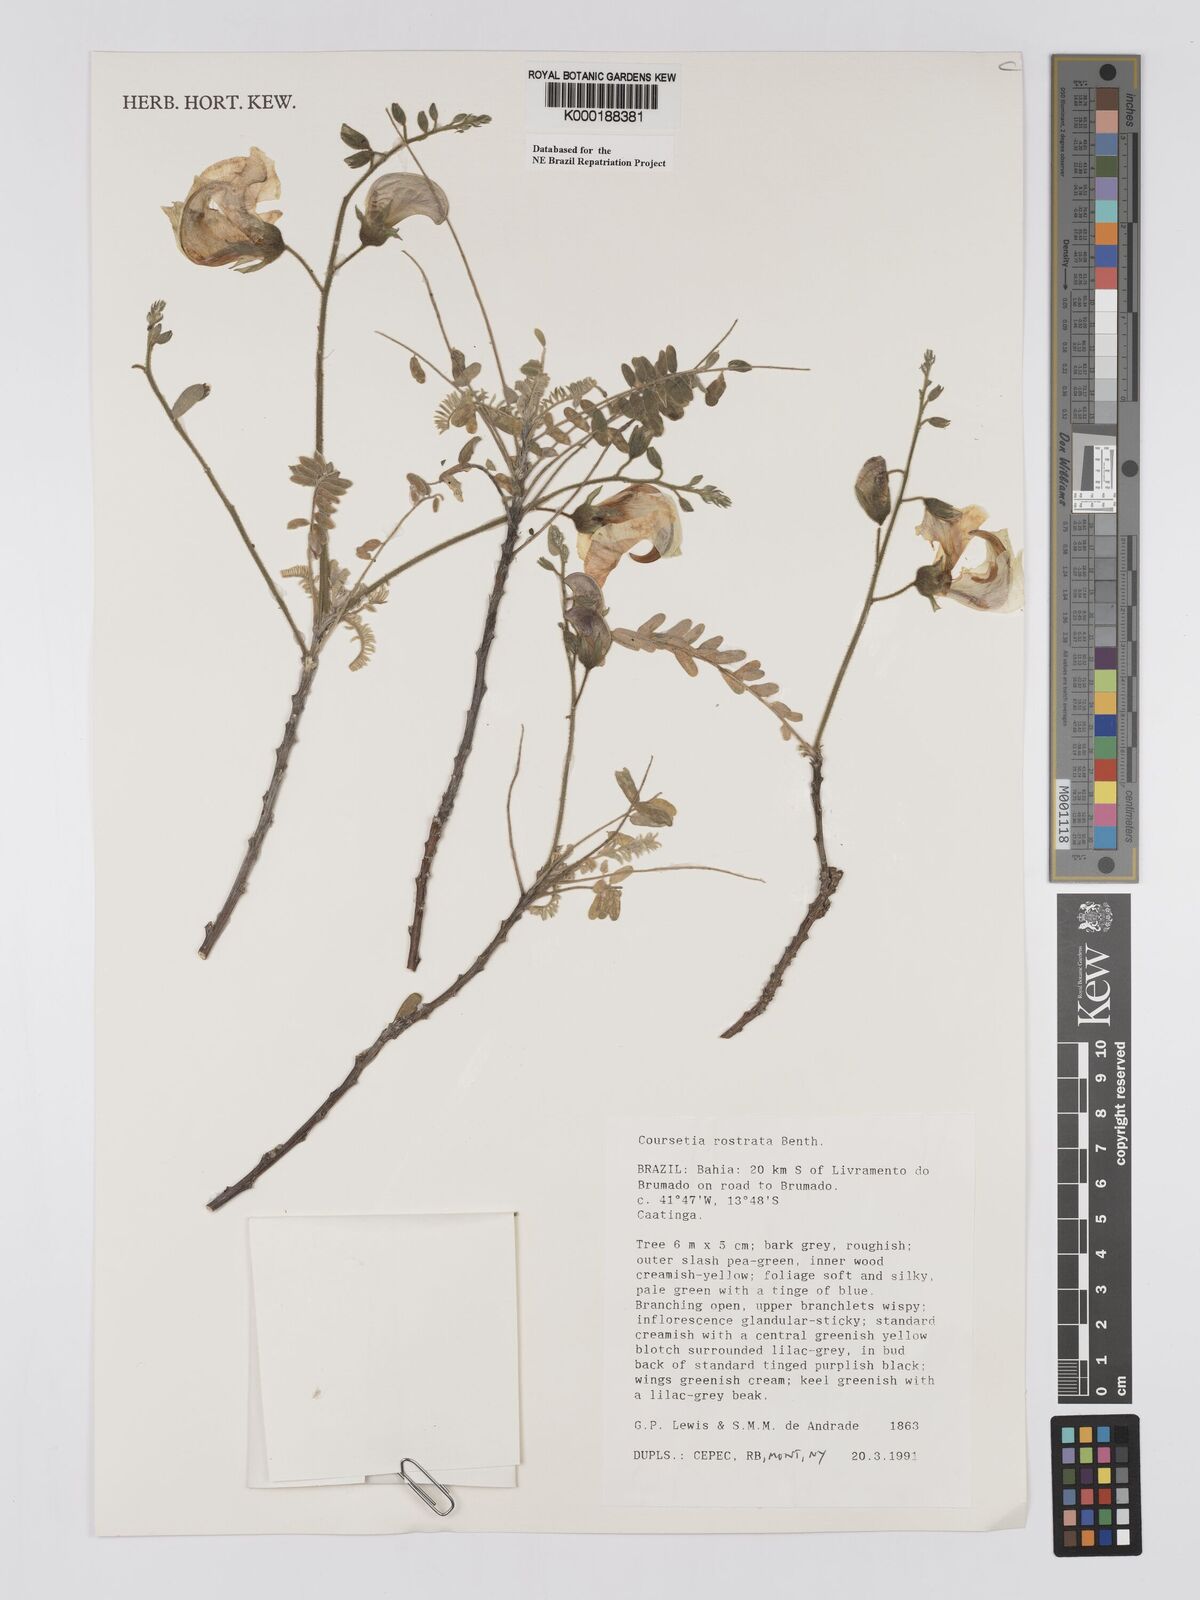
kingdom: Plantae
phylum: Tracheophyta
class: Magnoliopsida
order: Fabales
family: Fabaceae
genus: Coursetia
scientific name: Coursetia rostrata
